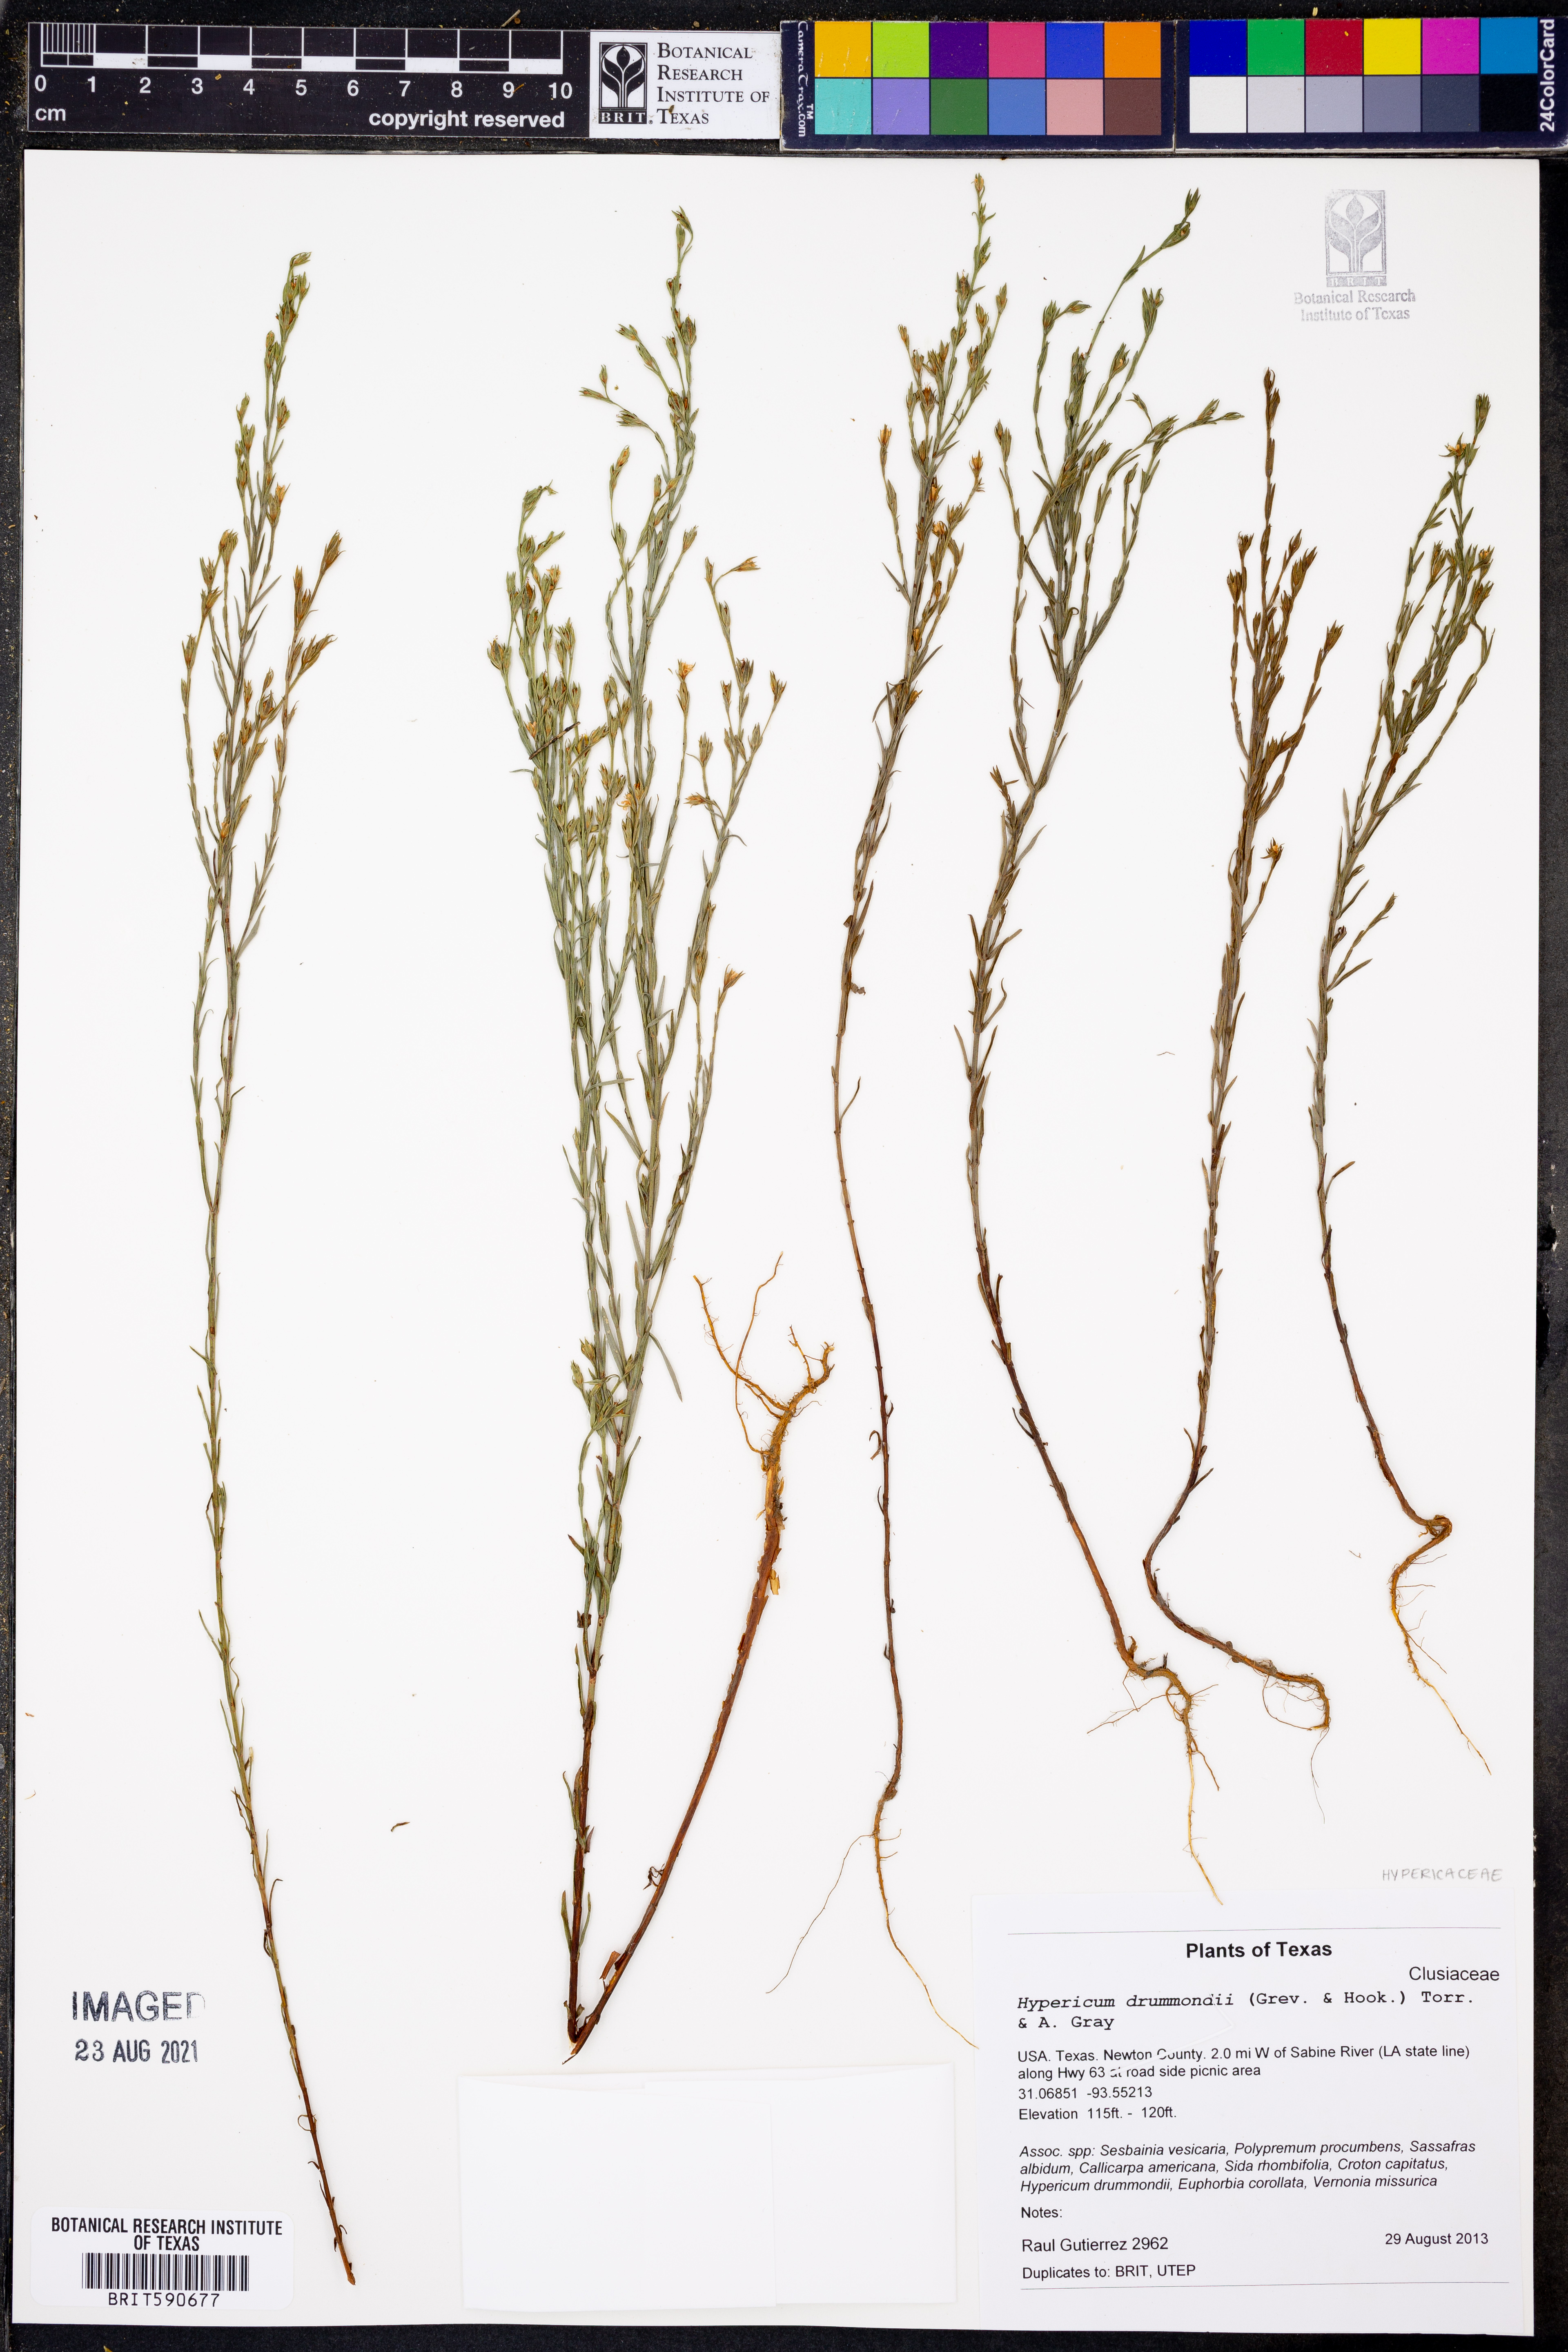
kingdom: Plantae
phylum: Tracheophyta
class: Magnoliopsida
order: Malpighiales
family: Hypericaceae
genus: Hypericum
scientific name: Hypericum drummondii
